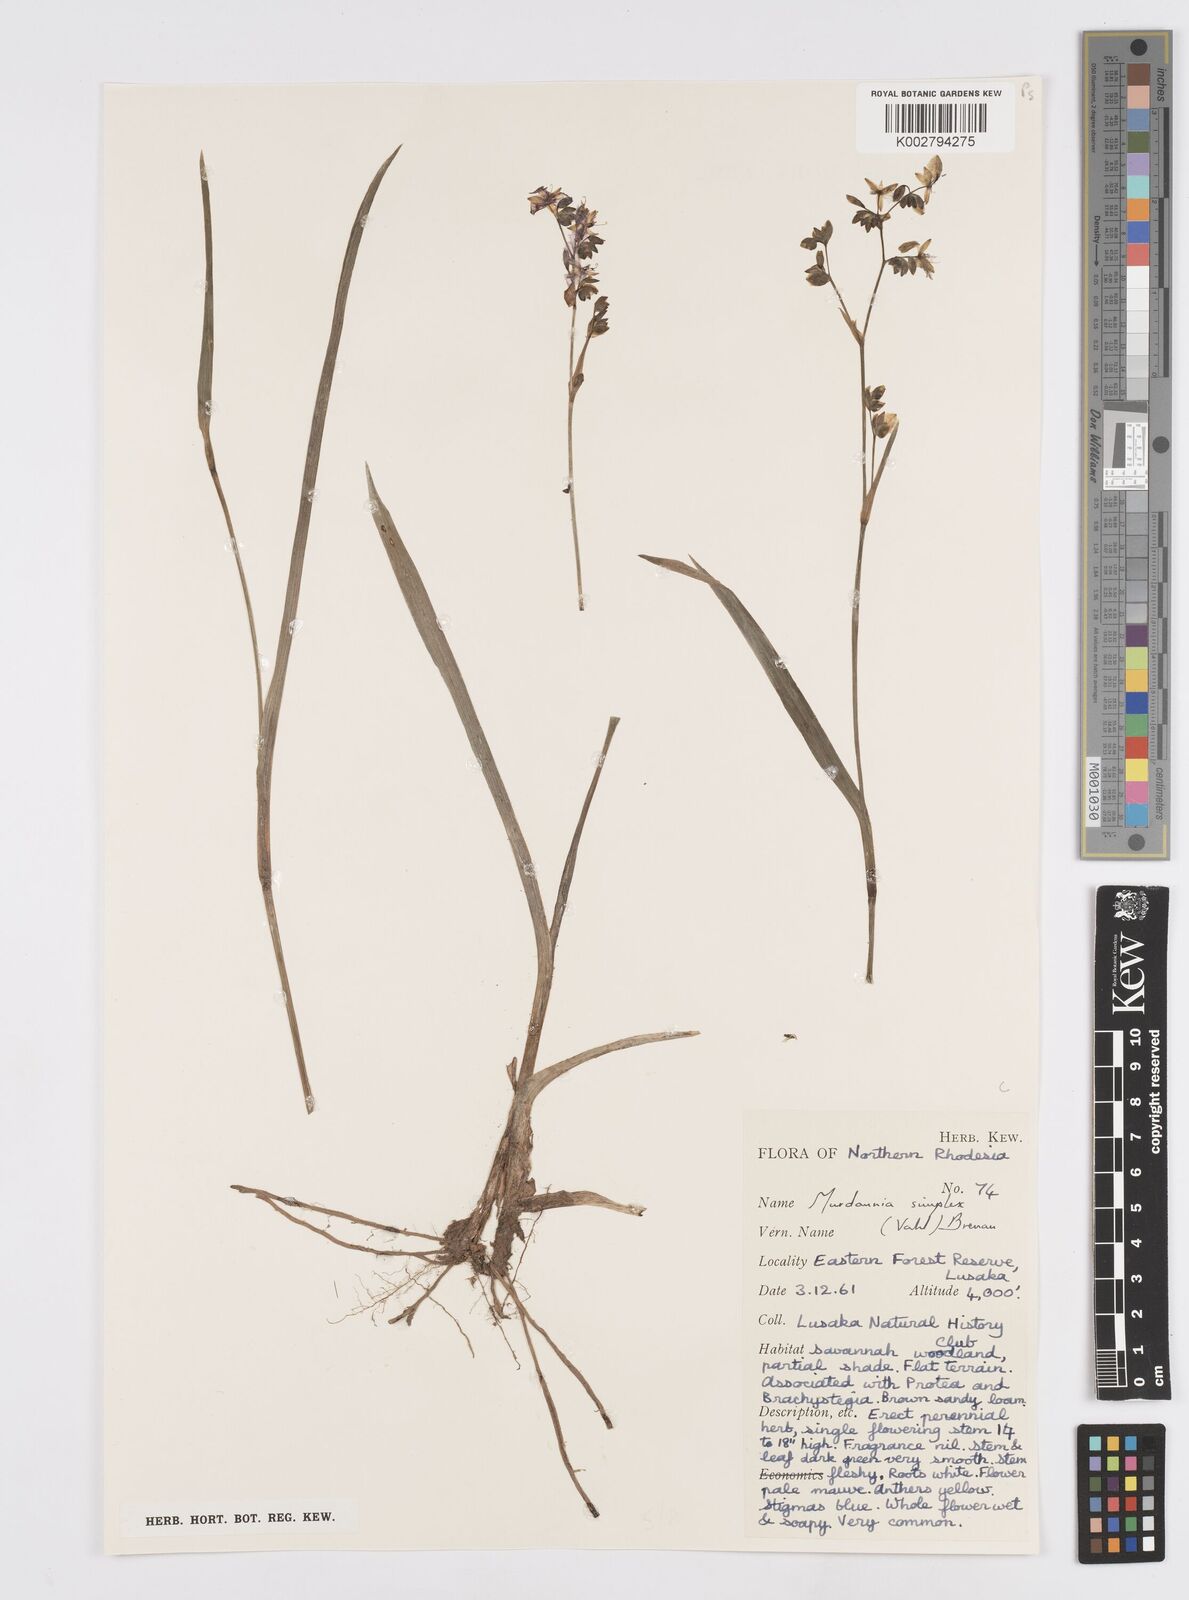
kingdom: Plantae
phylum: Tracheophyta
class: Liliopsida
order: Commelinales
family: Commelinaceae
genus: Murdannia
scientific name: Murdannia simplex
